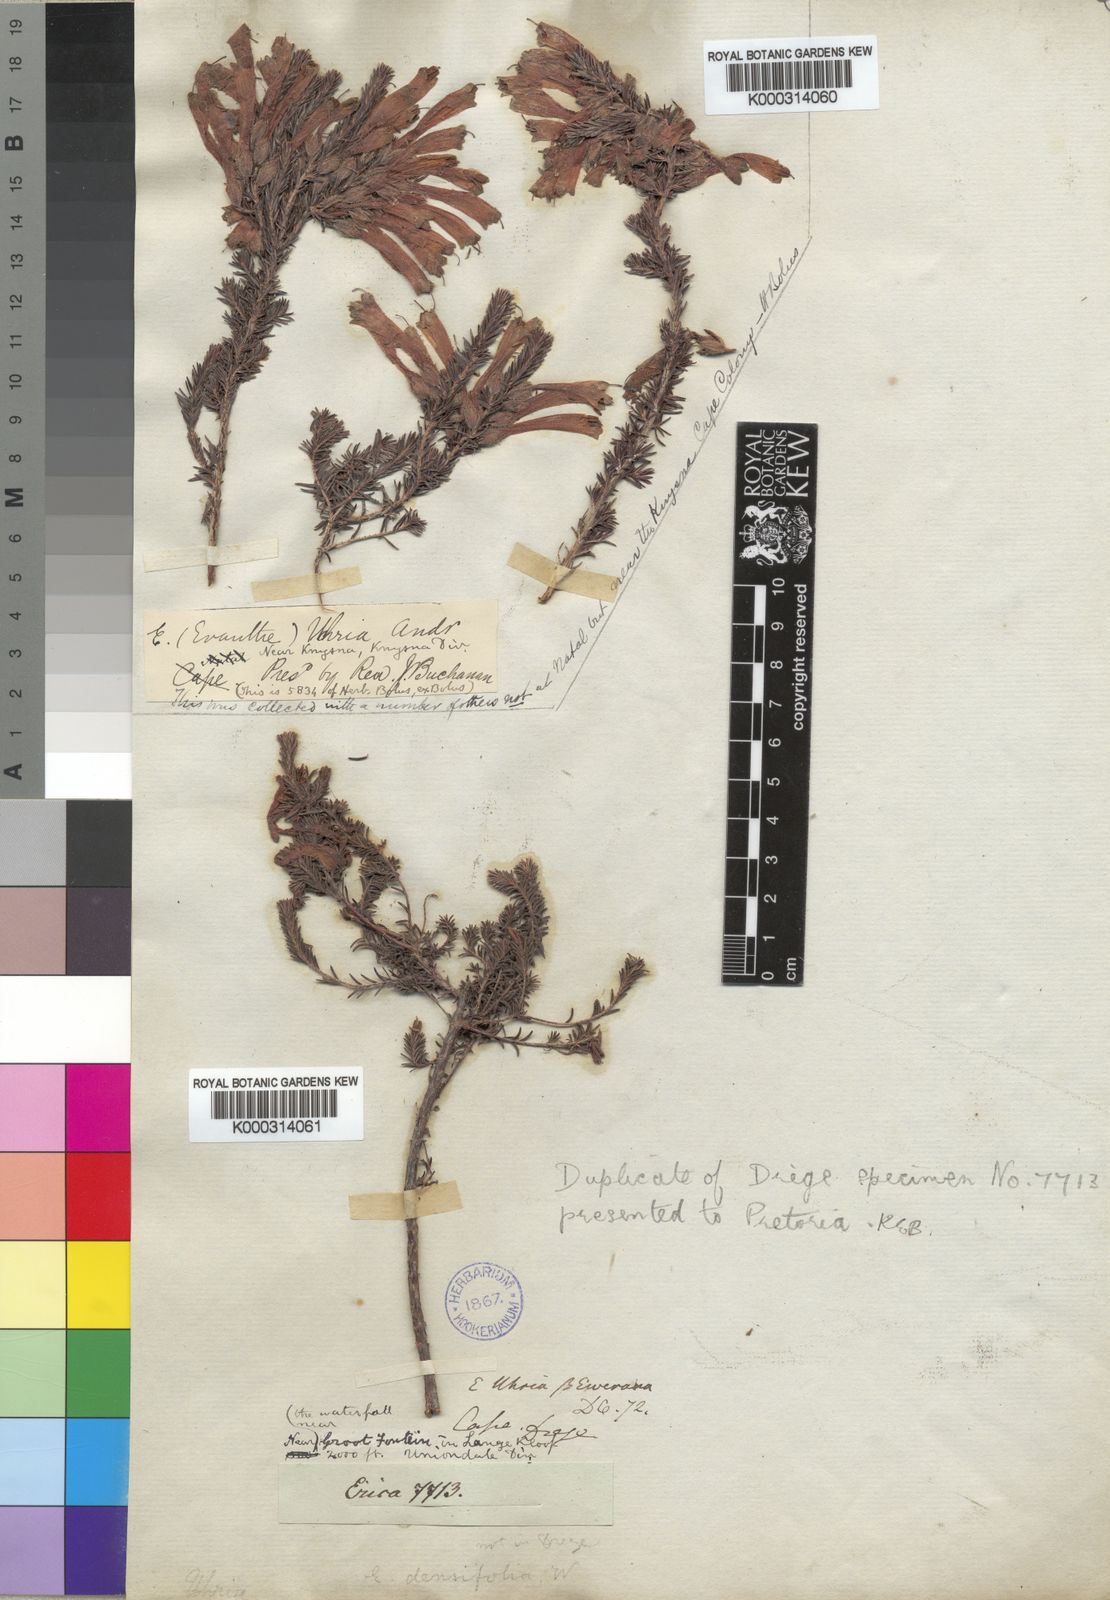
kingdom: Plantae
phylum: Tracheophyta
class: Magnoliopsida
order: Ericales
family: Ericaceae
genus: Erica
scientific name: Erica densifolia
